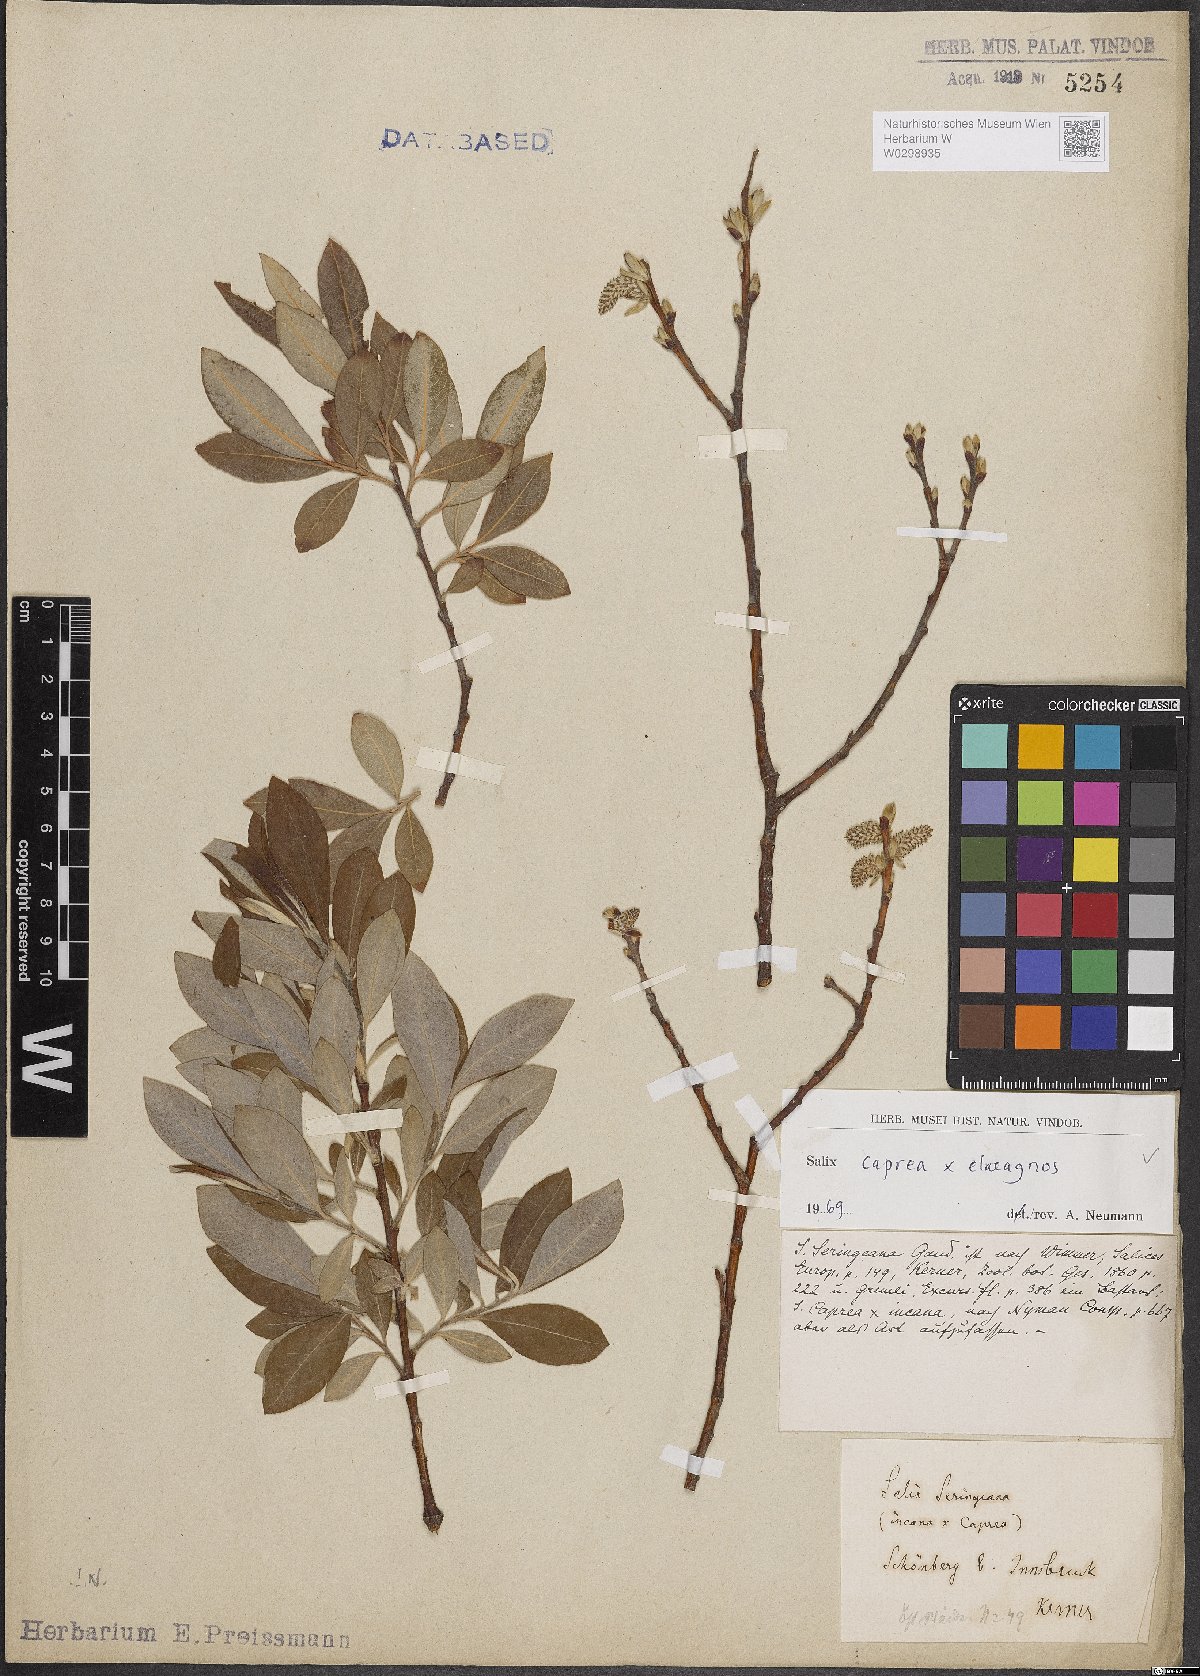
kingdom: Plantae
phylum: Tracheophyta
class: Magnoliopsida
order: Malpighiales
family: Salicaceae
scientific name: Salicaceae
